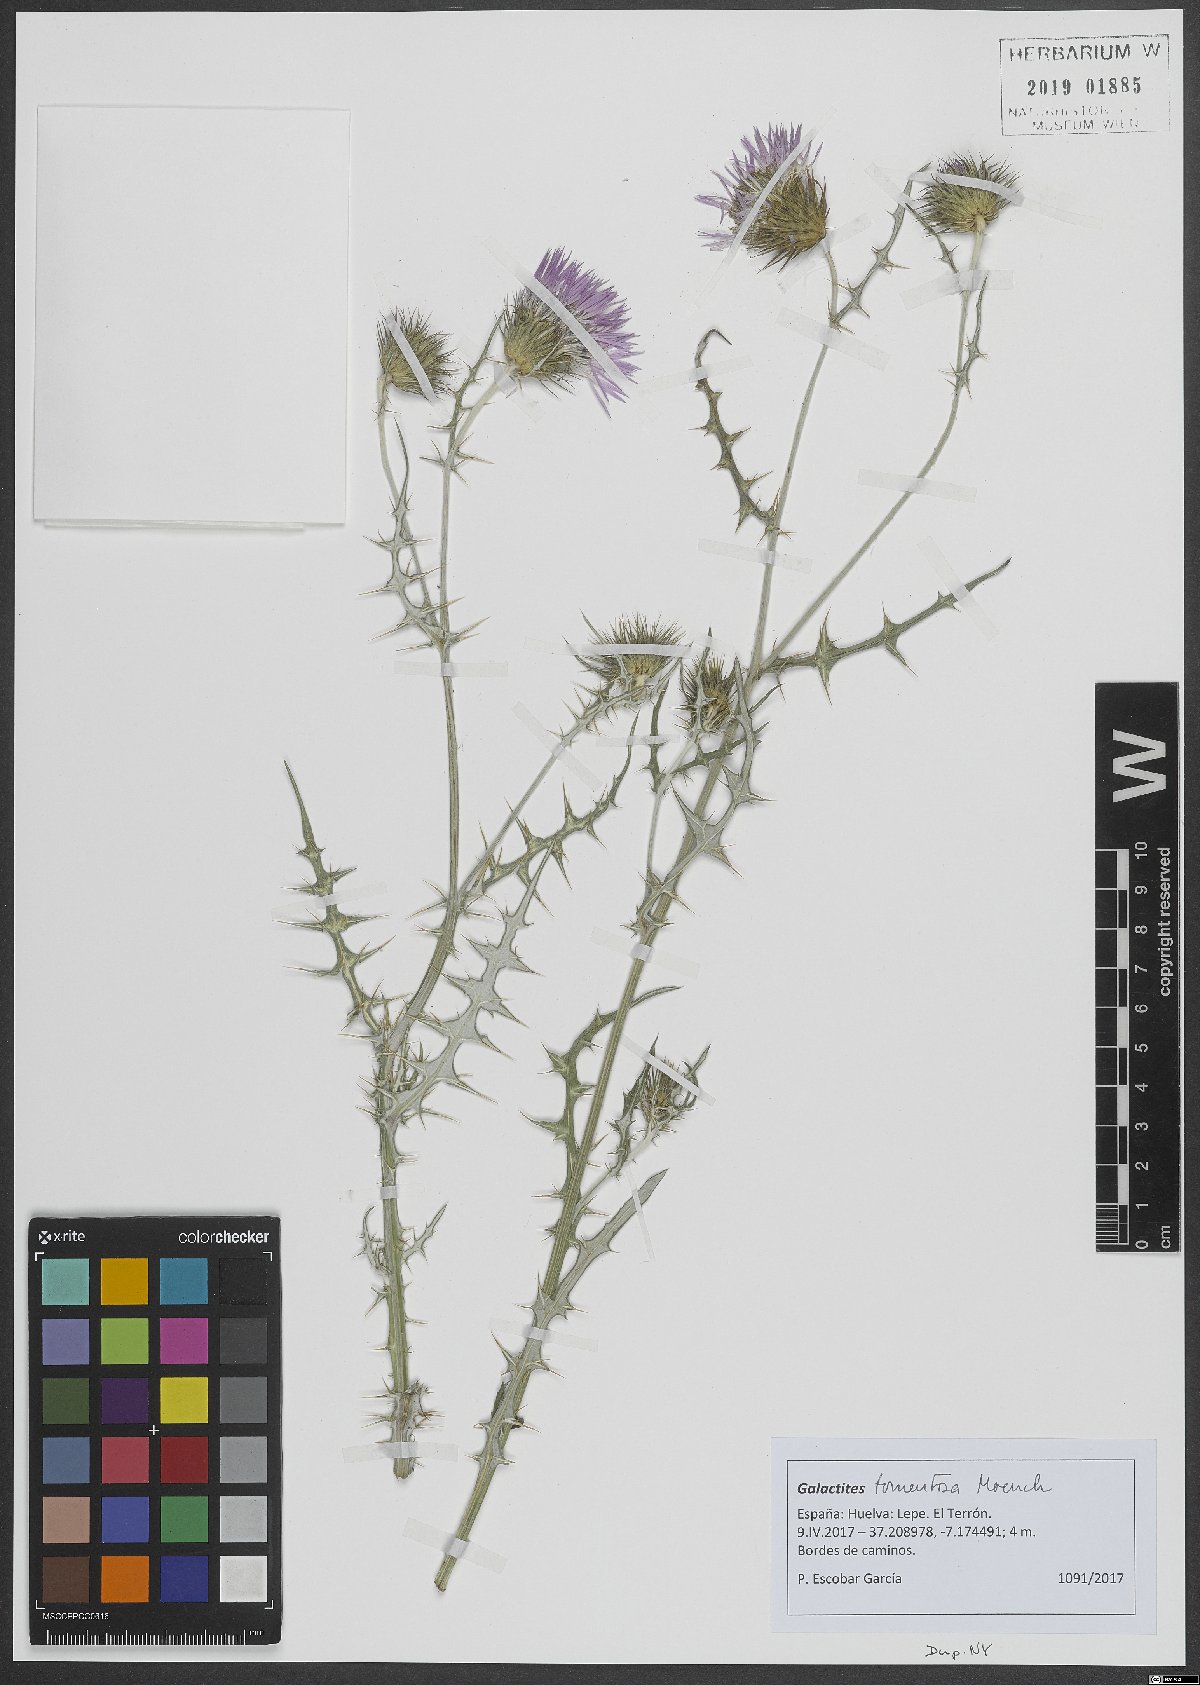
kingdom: Plantae
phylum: Tracheophyta
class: Magnoliopsida
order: Asterales
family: Asteraceae
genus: Galactites
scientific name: Galactites tomentosa
